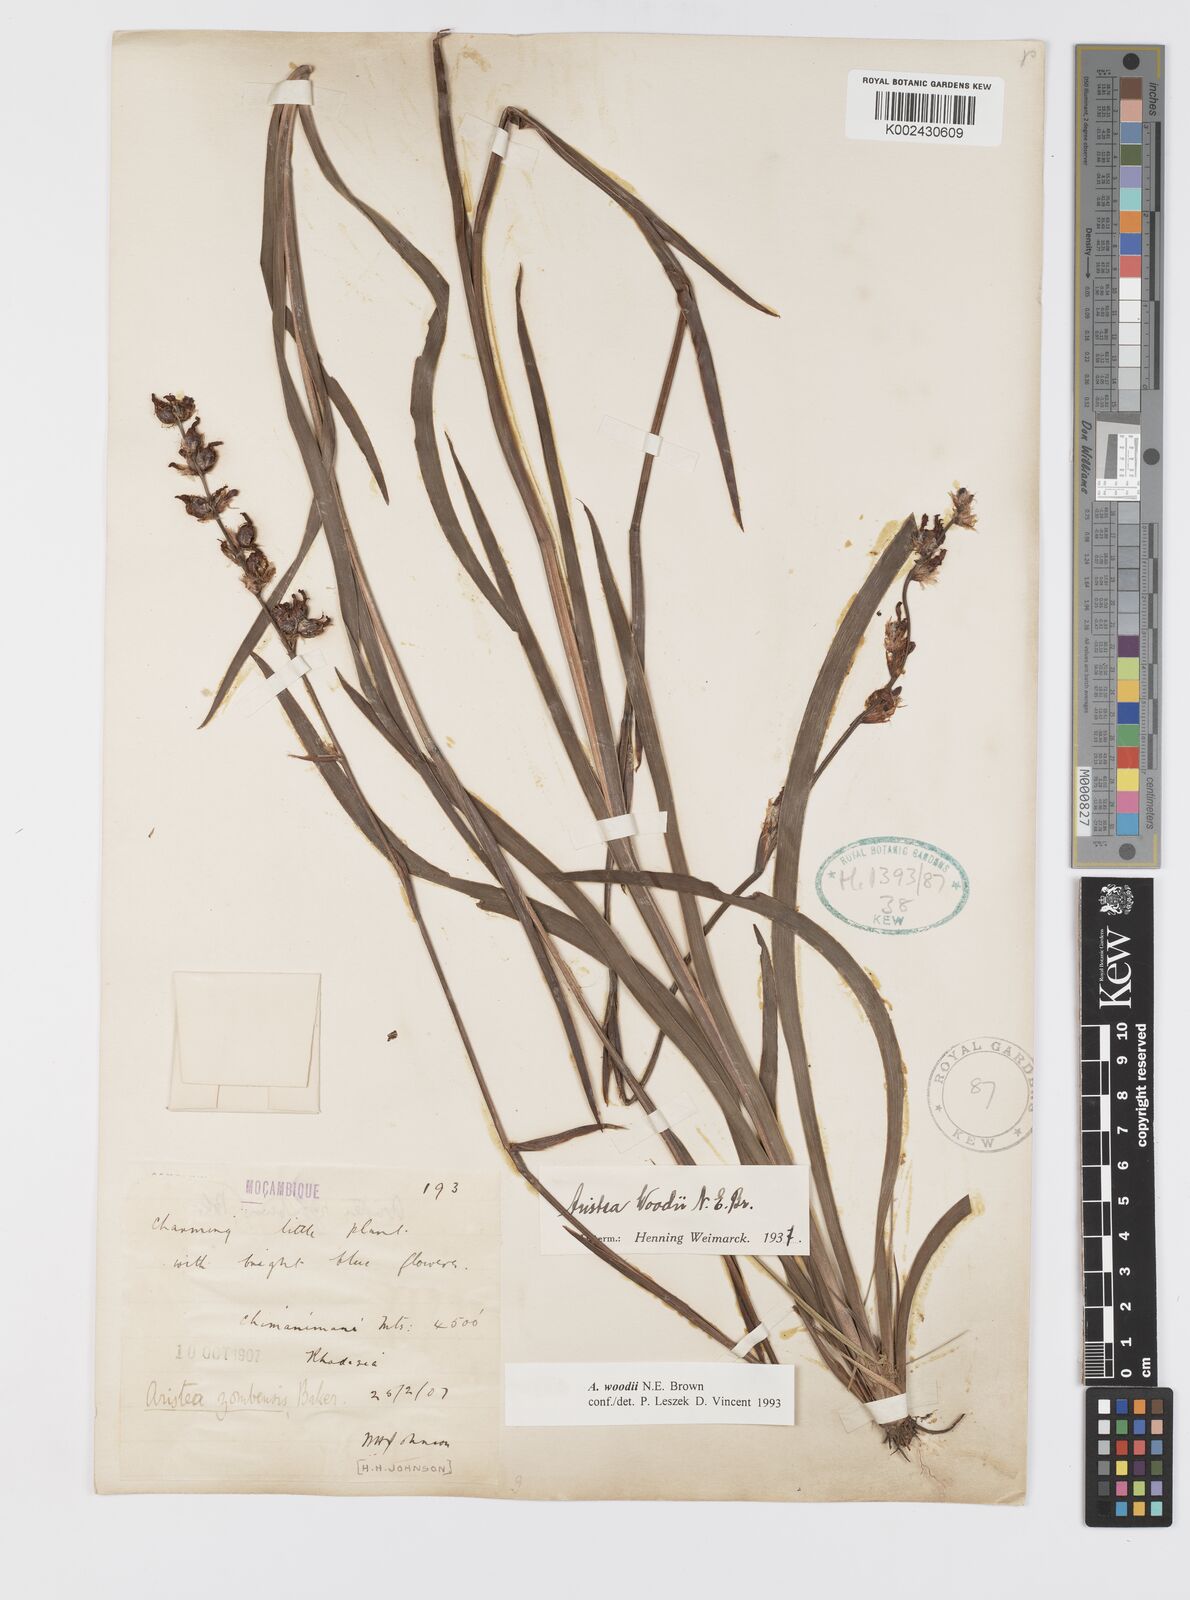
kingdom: Plantae
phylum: Tracheophyta
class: Liliopsida
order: Asparagales
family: Iridaceae
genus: Aristea
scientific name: Aristea torulosa
